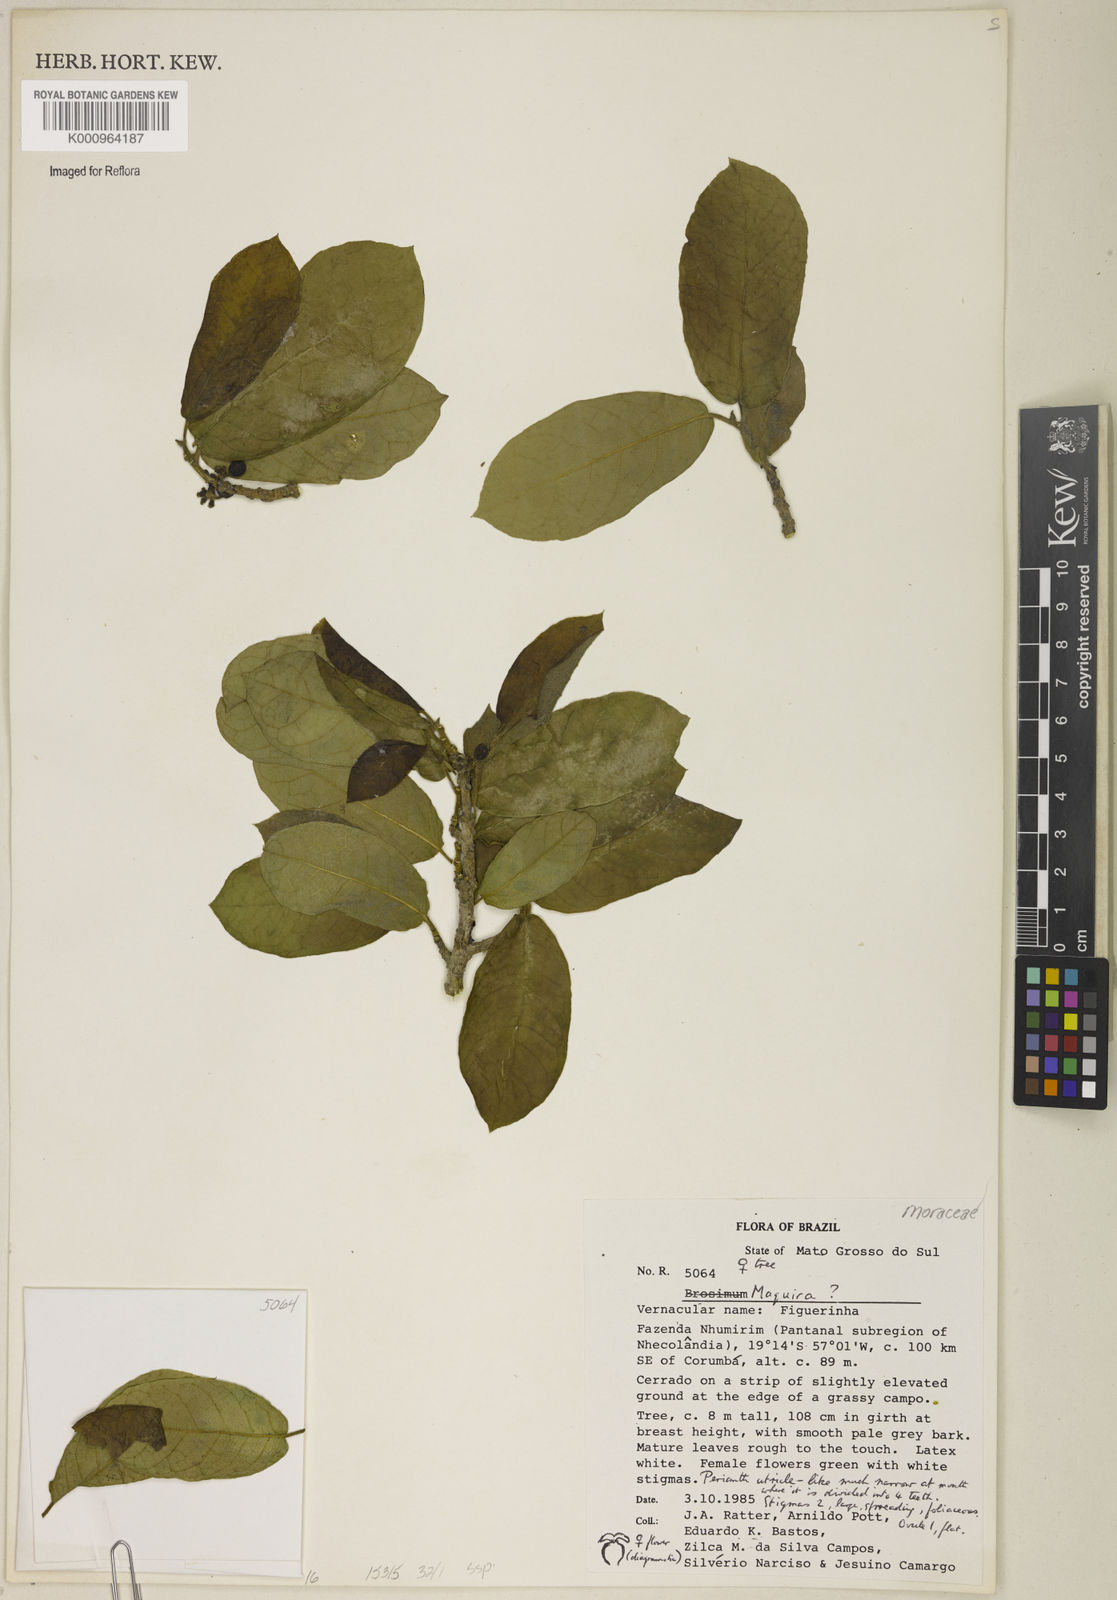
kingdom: Plantae
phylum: Tracheophyta
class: Magnoliopsida
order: Rosales
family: Moraceae
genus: Maquira
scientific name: Maquira
